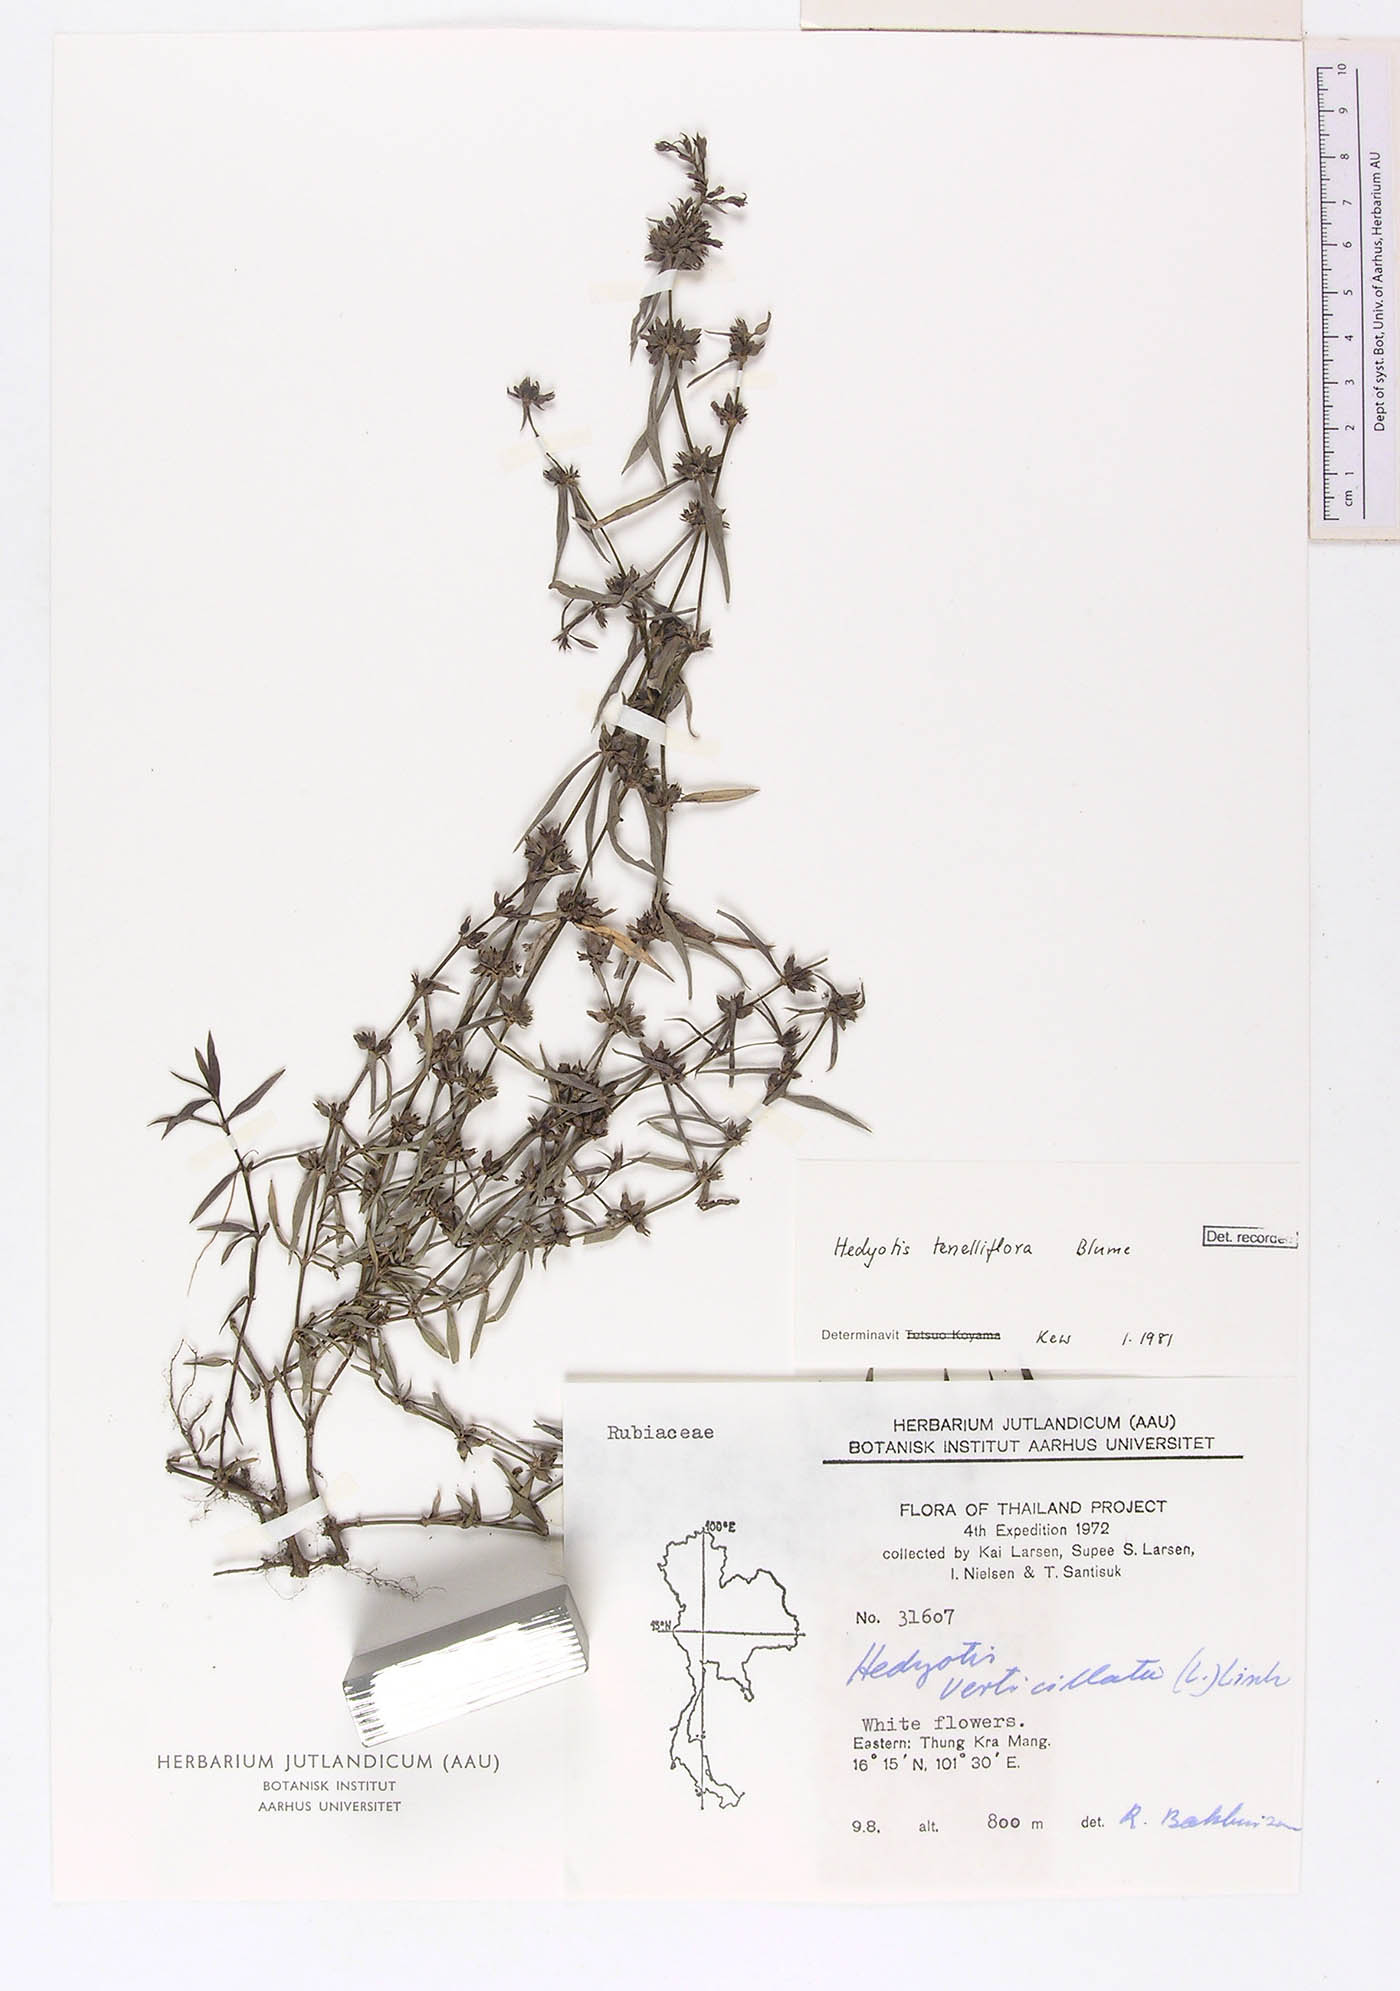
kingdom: Plantae
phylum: Tracheophyta
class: Magnoliopsida
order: Gentianales
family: Rubiaceae
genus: Scleromitrion
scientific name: Scleromitrion tenelliflorum
